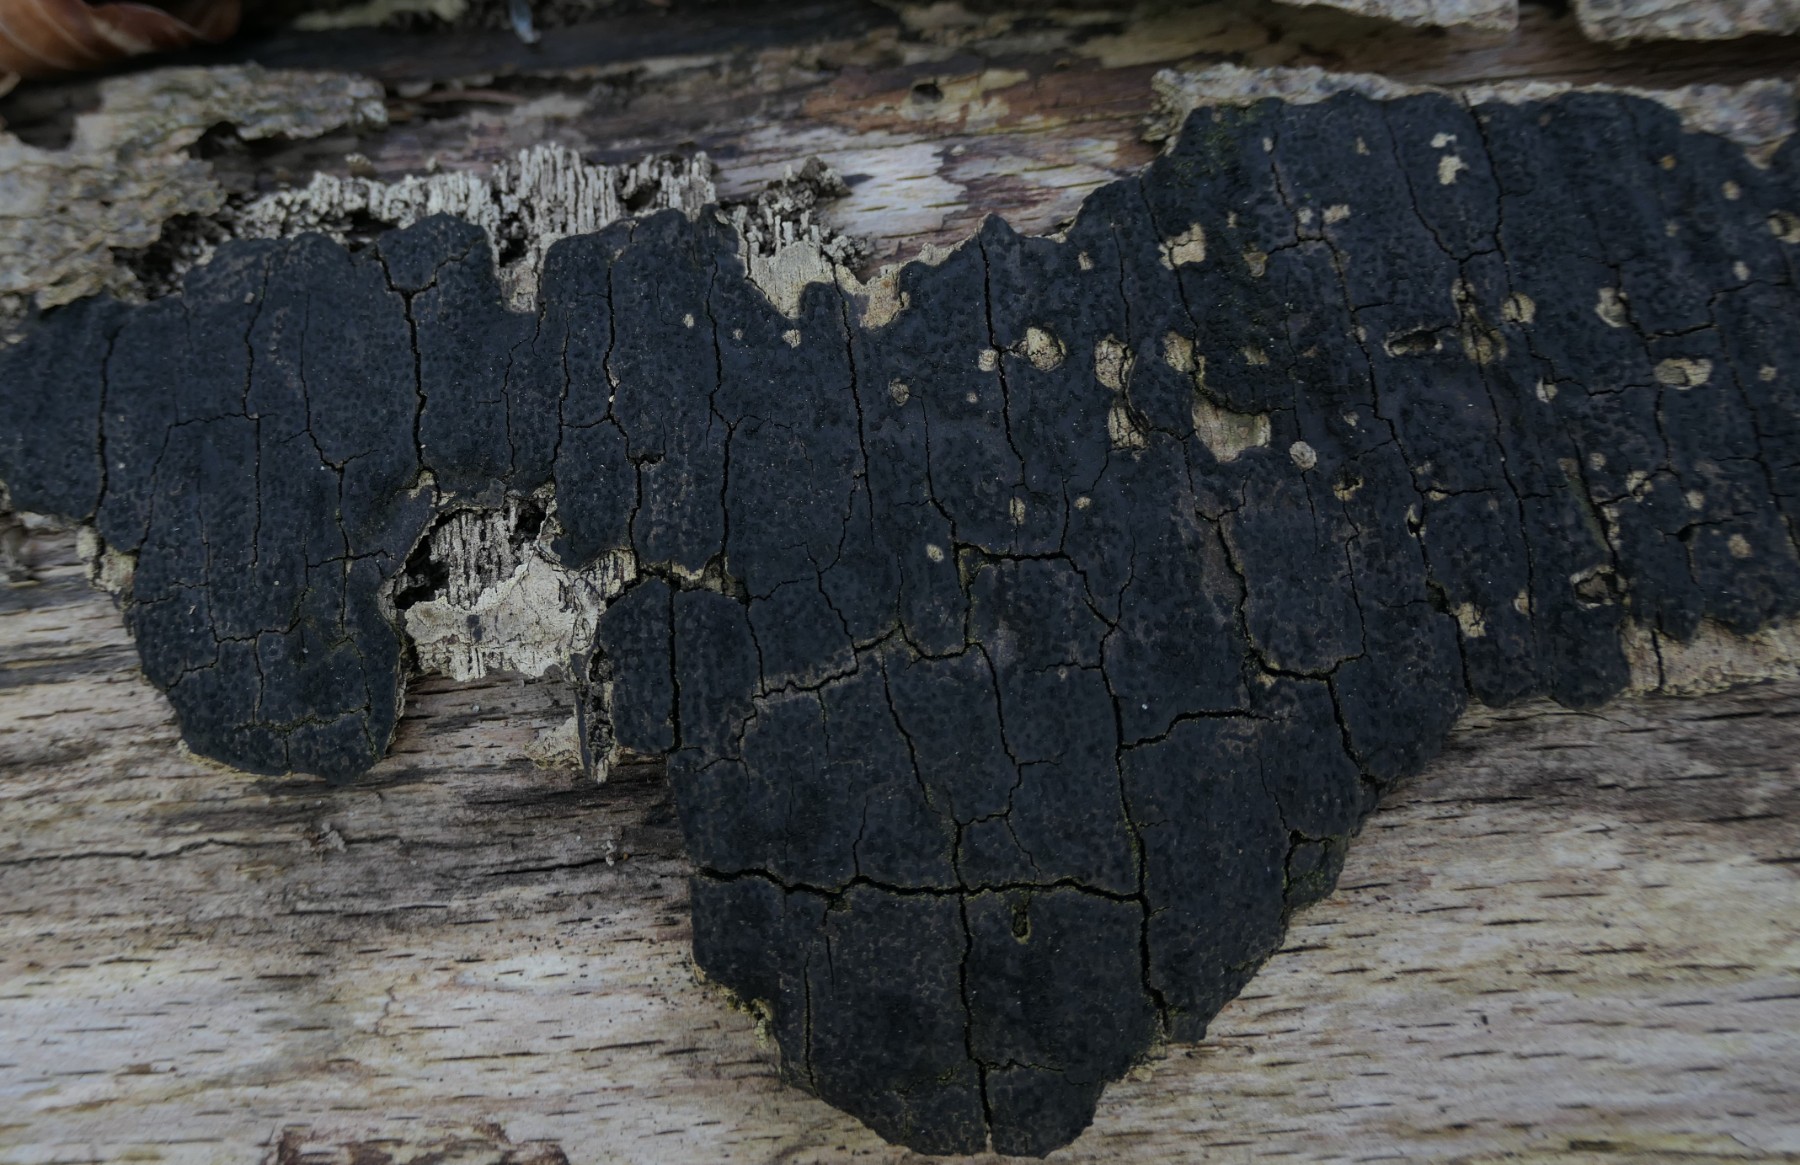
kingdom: Fungi
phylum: Ascomycota
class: Sordariomycetes
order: Xylariales
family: Diatrypaceae
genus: Eutypa
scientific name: Eutypa spinosa
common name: grov kulskorpe
